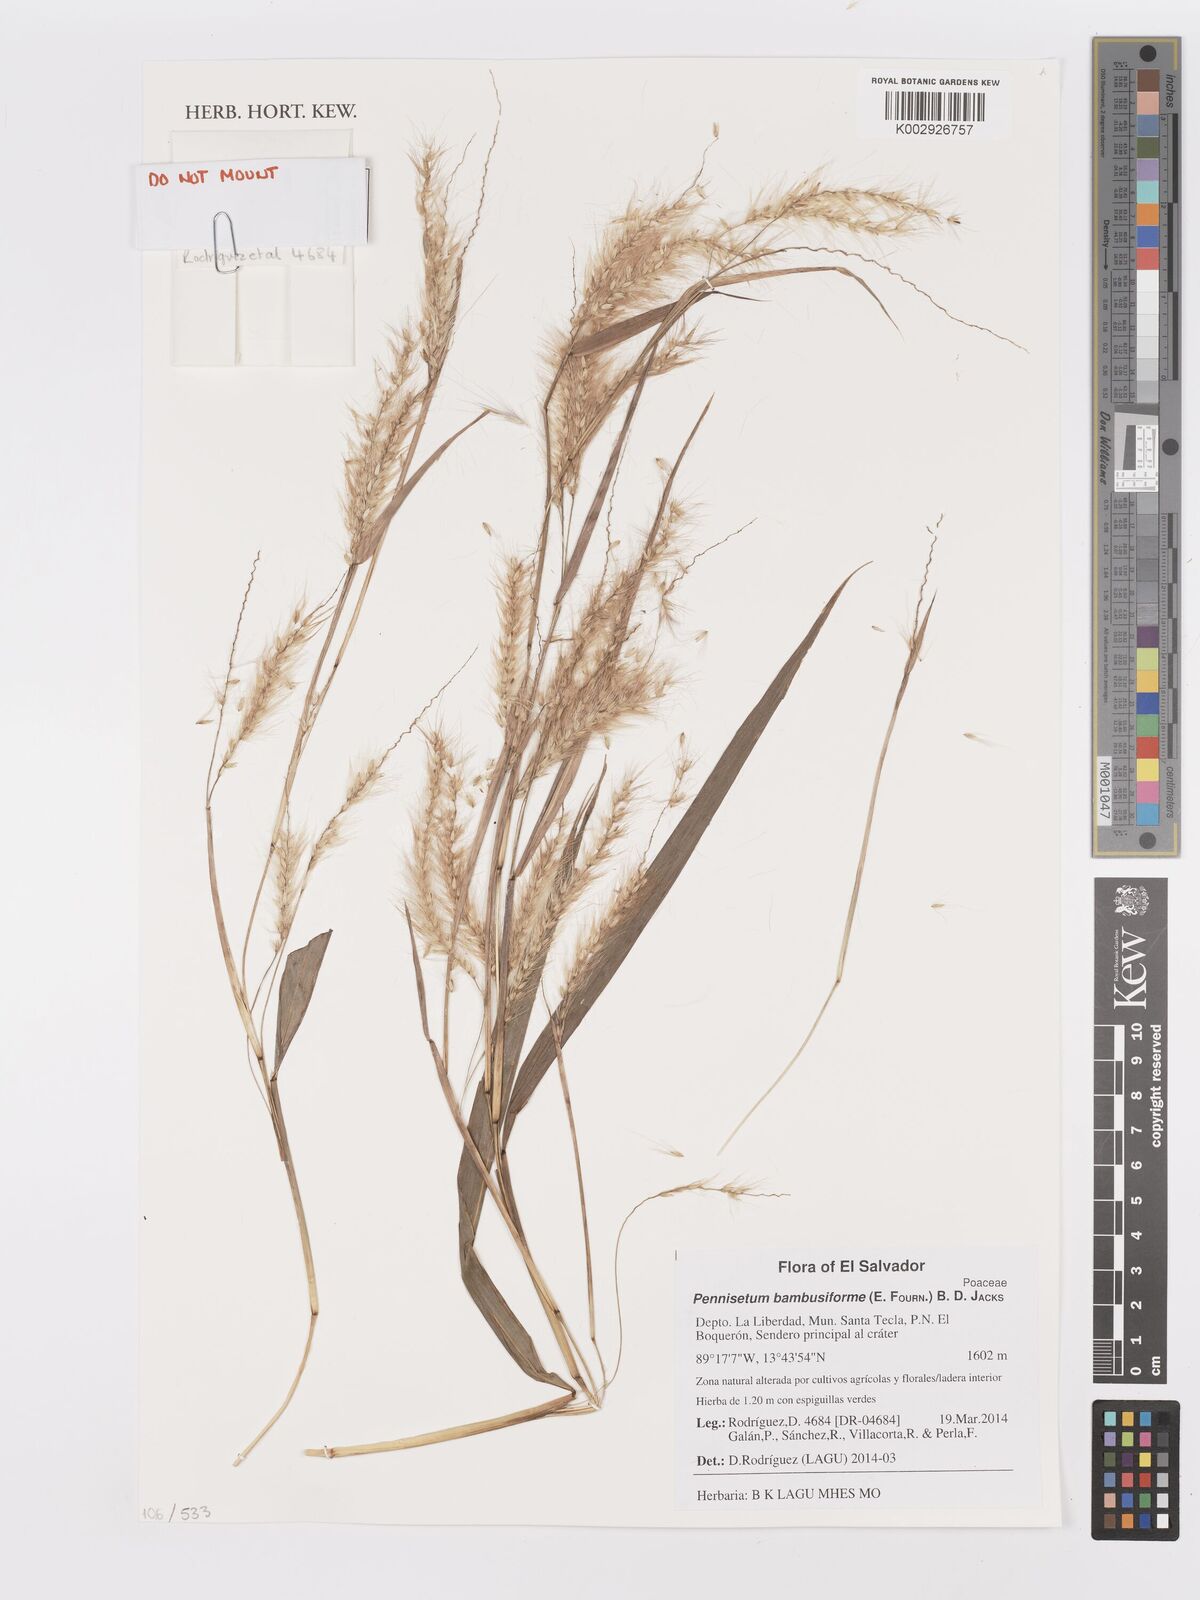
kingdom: Plantae
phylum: Tracheophyta
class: Liliopsida
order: Poales
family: Poaceae
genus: Cenchrus
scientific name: Cenchrus tristachyus
